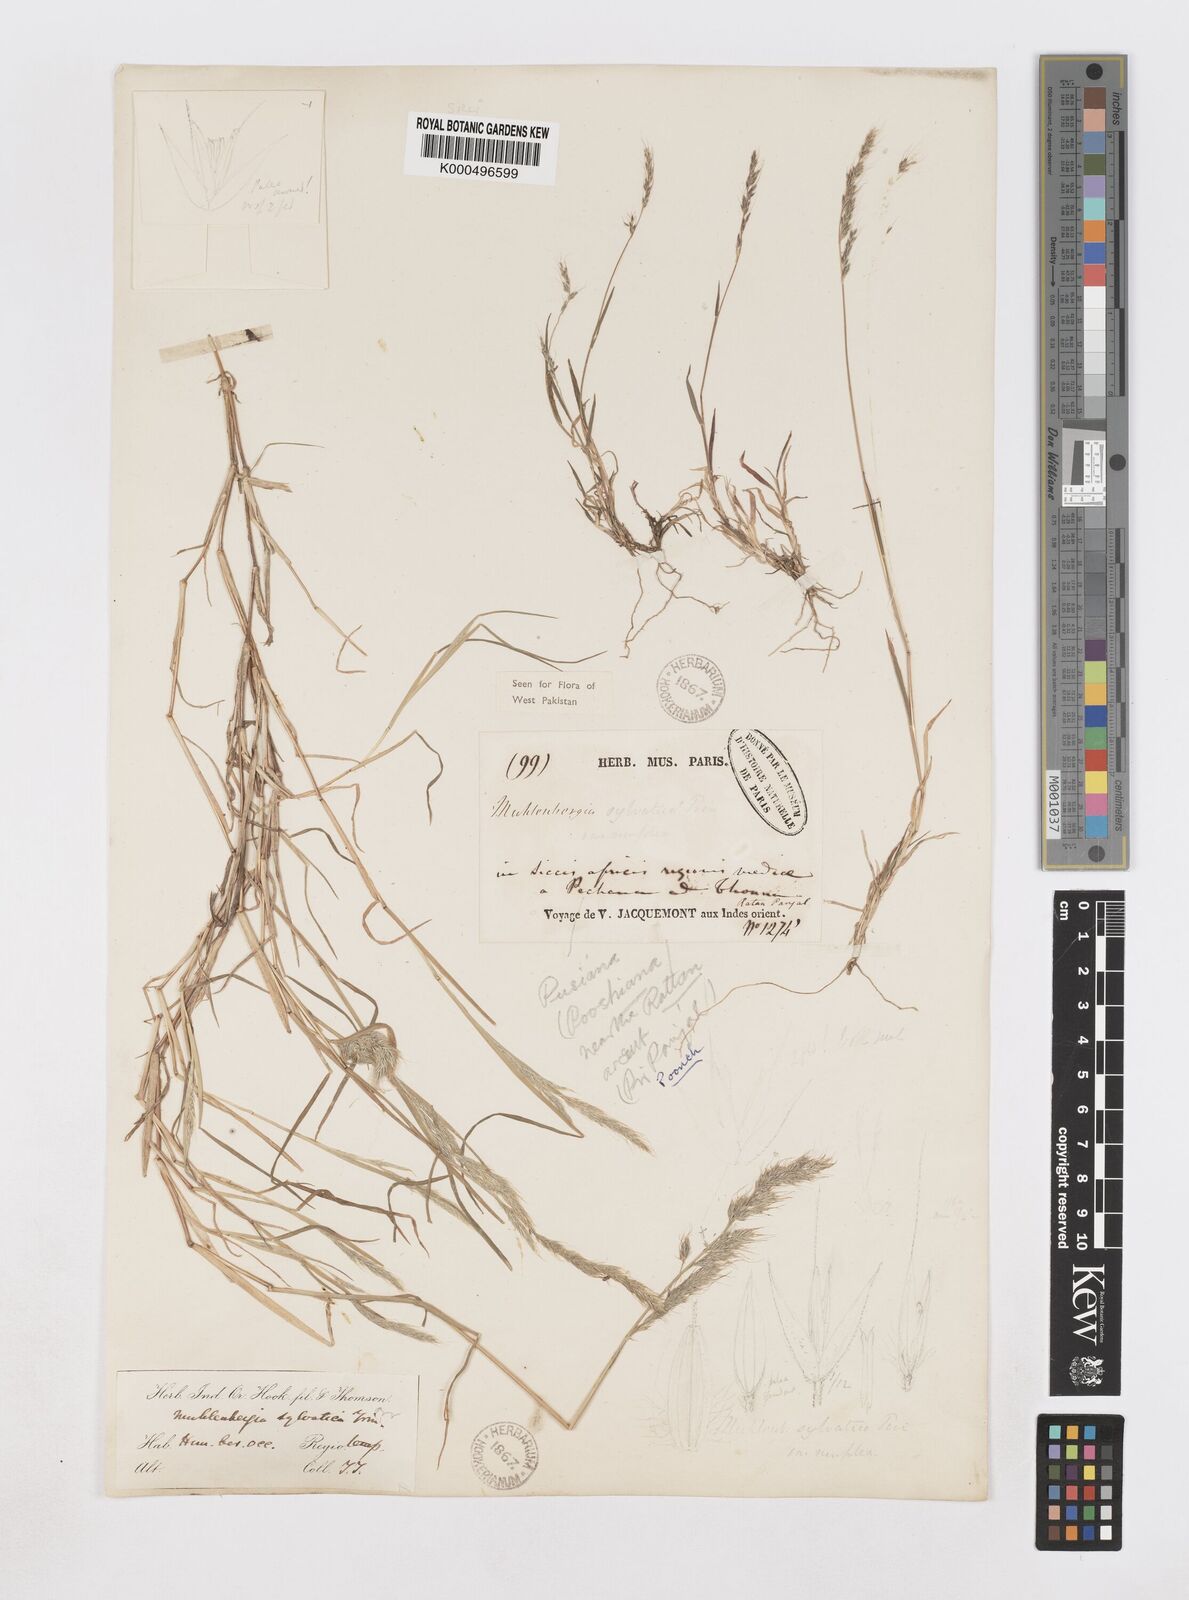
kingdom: Plantae
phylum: Tracheophyta
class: Liliopsida
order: Poales
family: Poaceae
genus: Muhlenbergia
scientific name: Muhlenbergia duthieana
